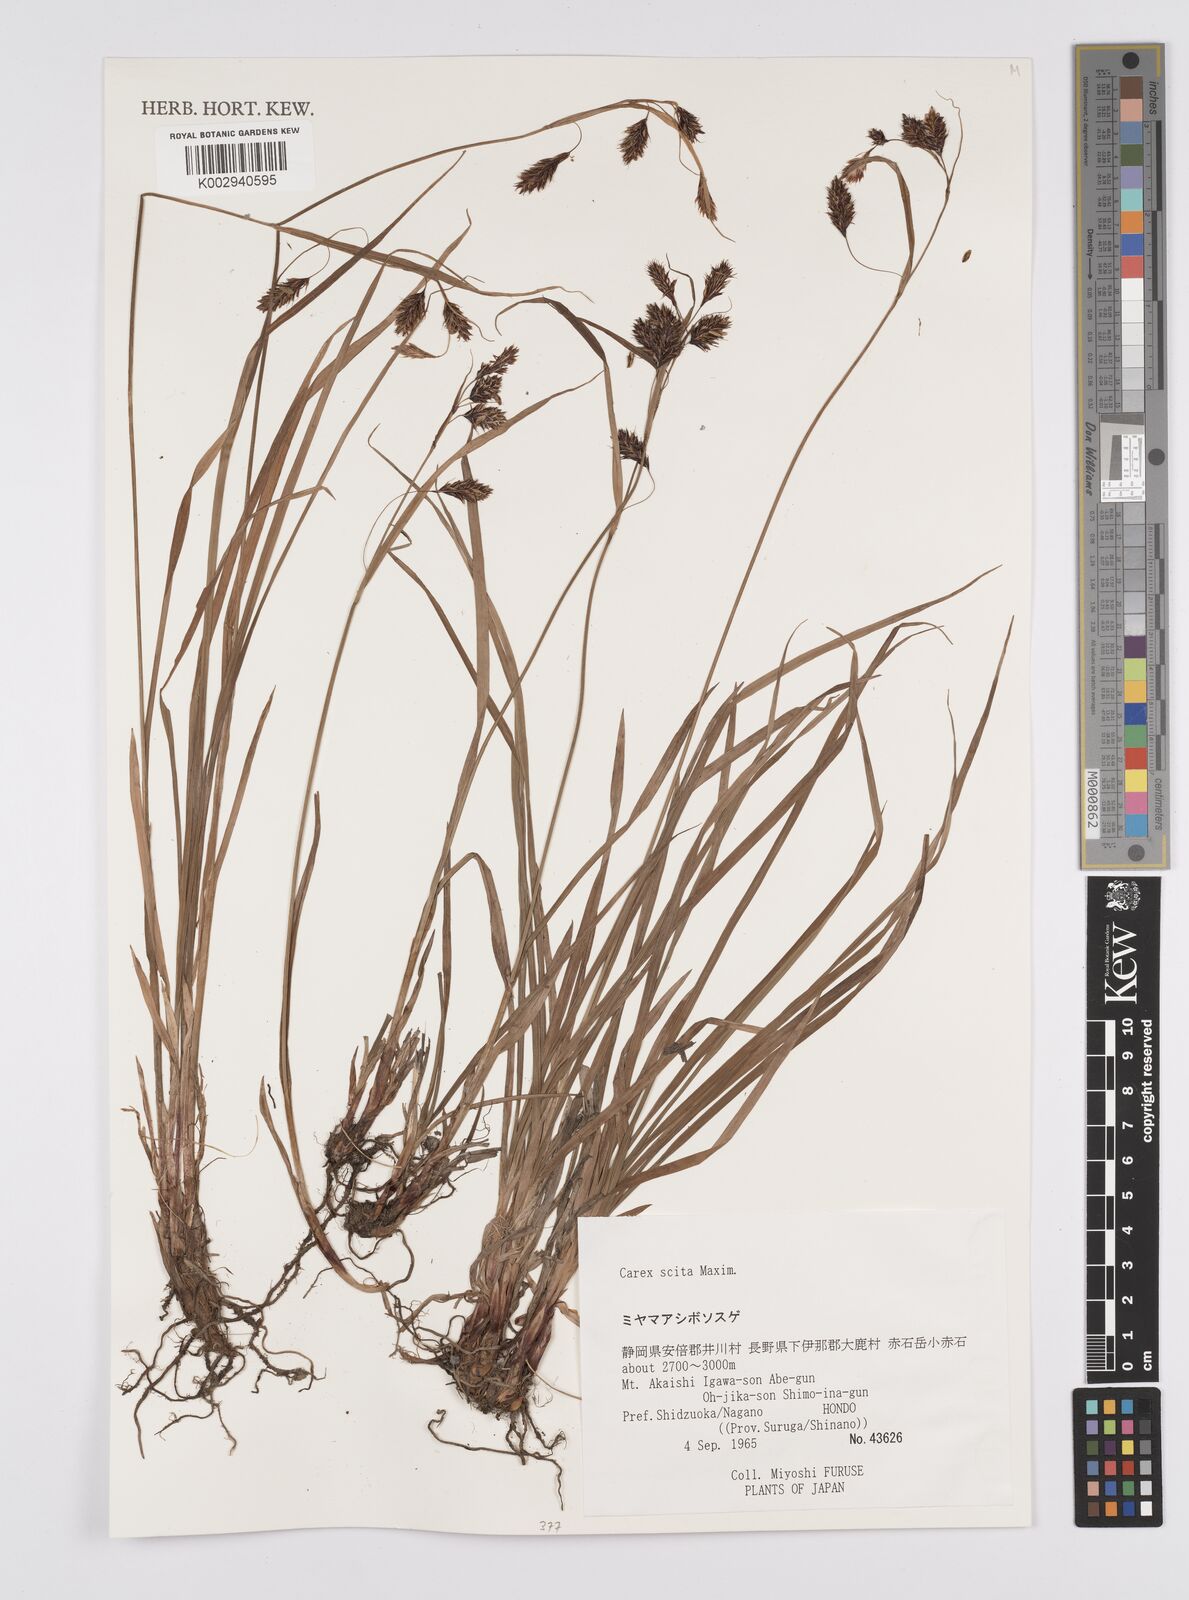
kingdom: Plantae
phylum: Tracheophyta
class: Liliopsida
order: Poales
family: Cyperaceae
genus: Carex
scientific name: Carex scita
